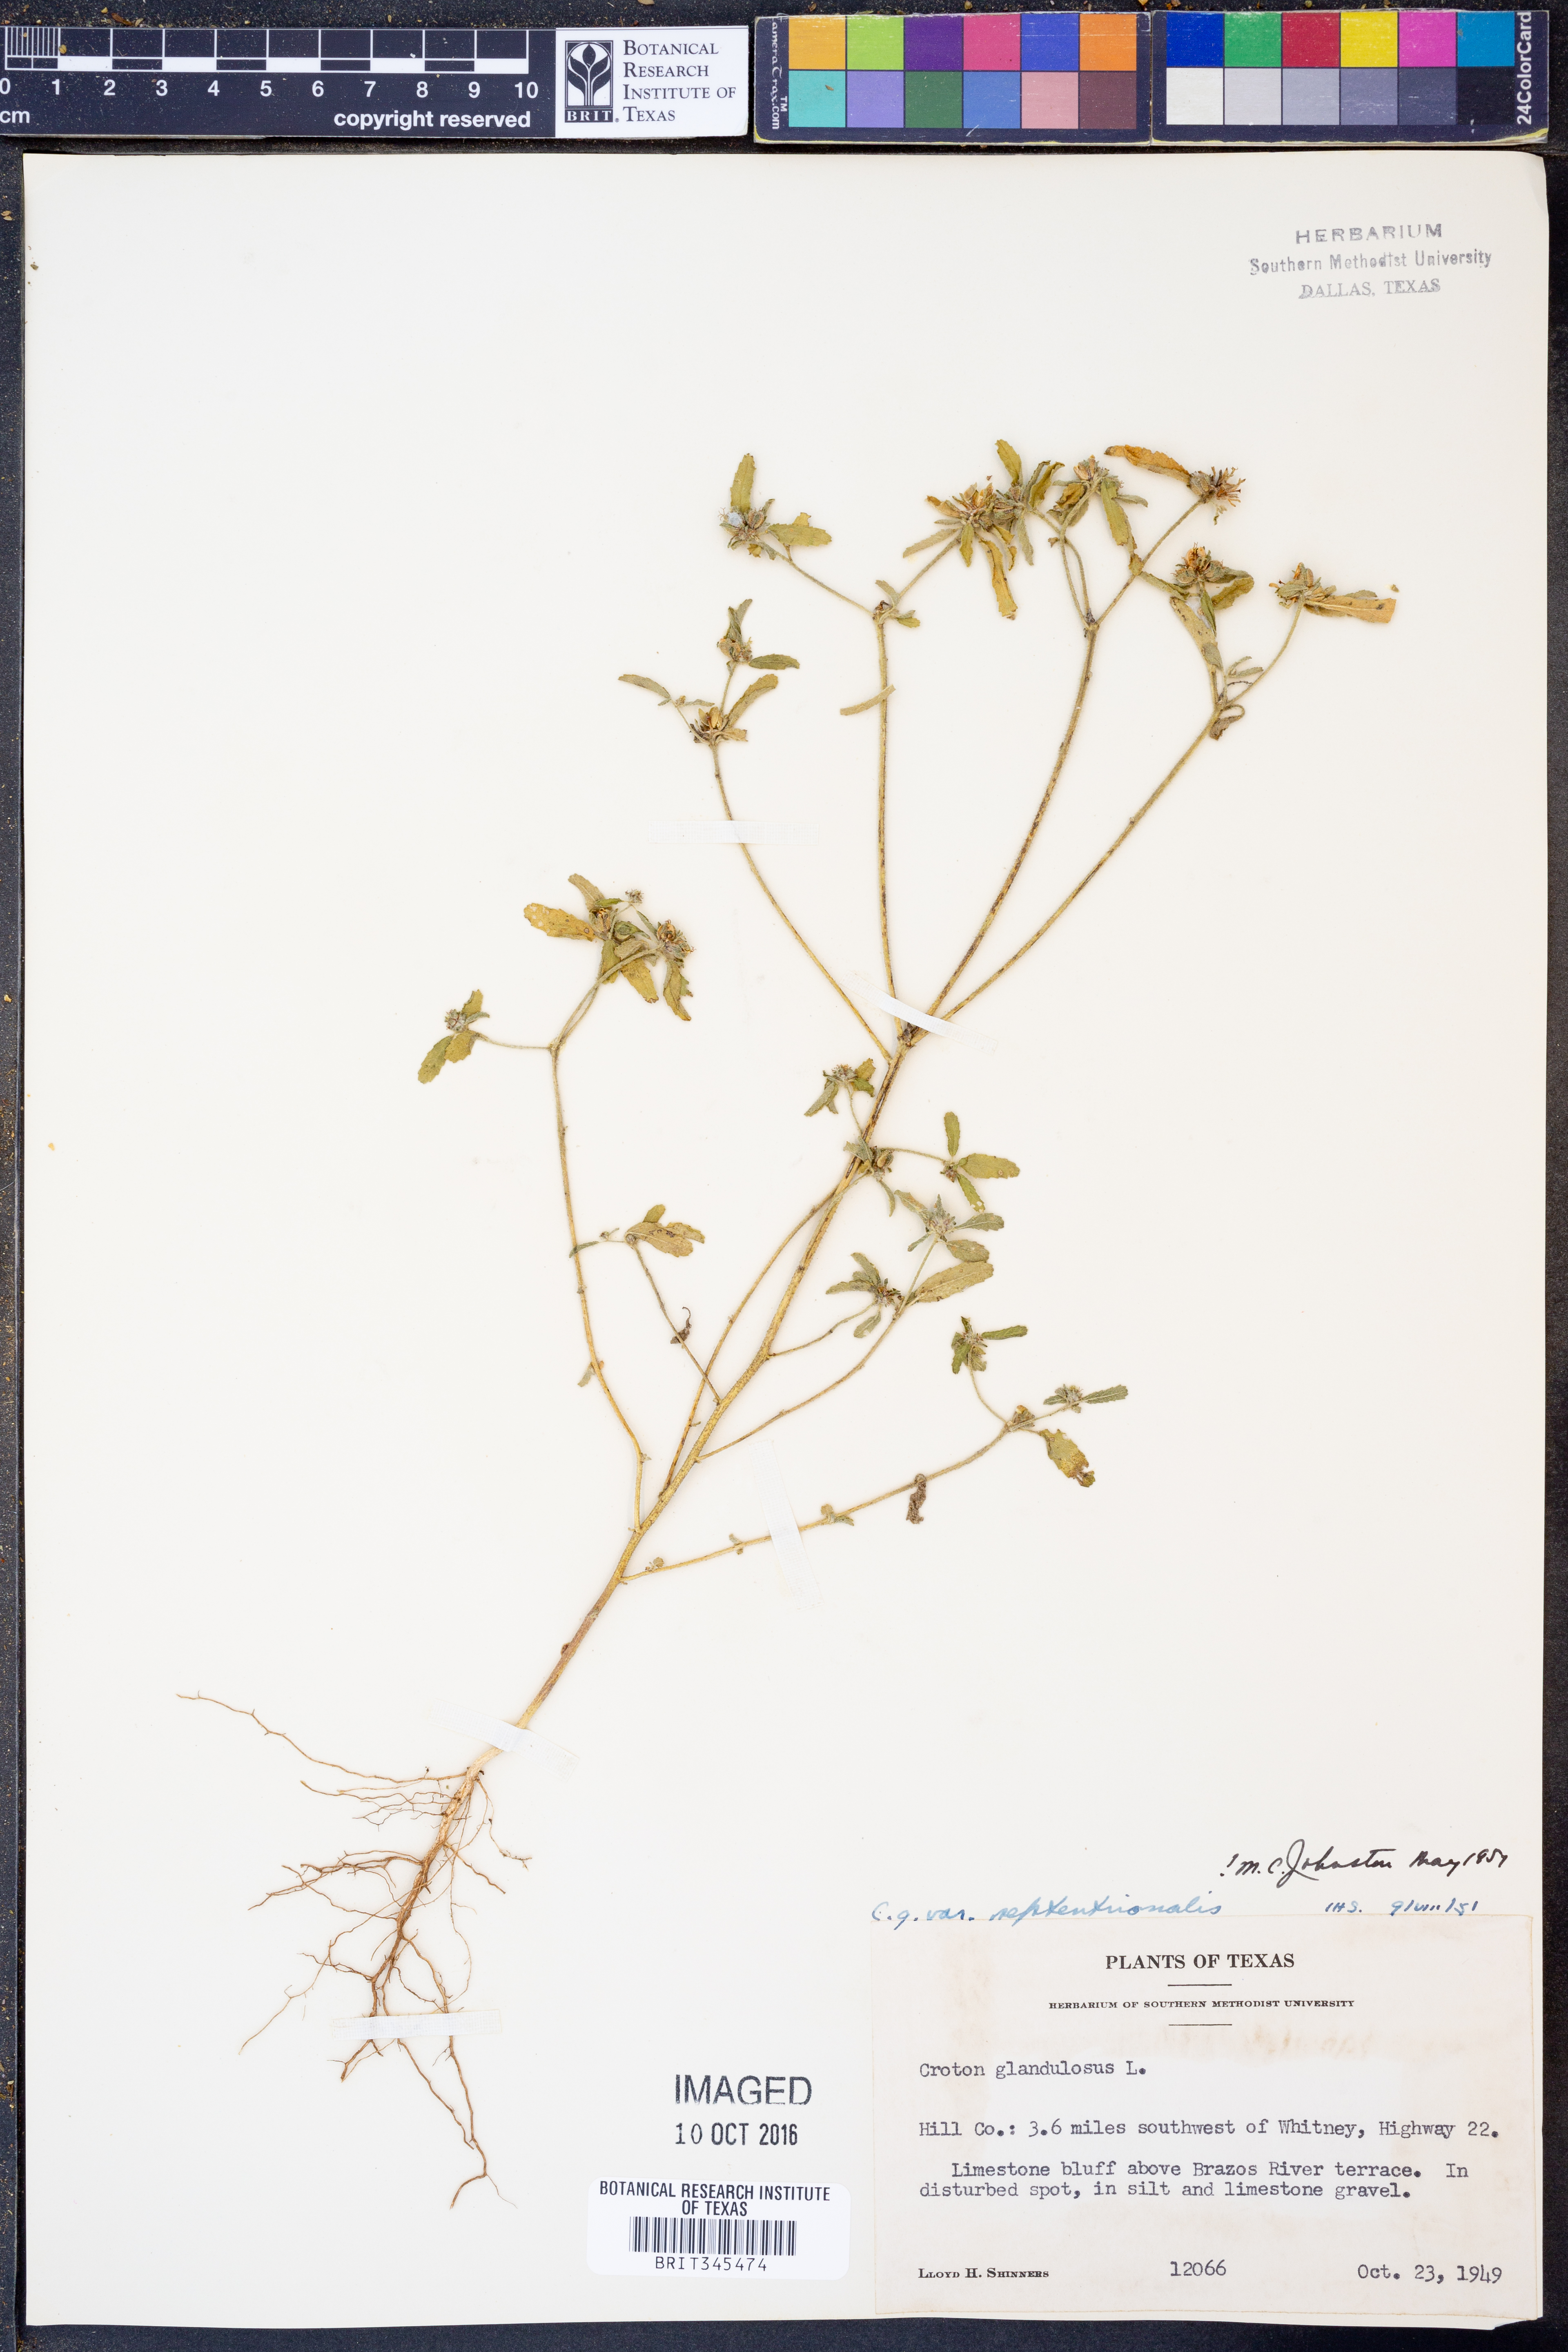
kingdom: Plantae
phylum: Tracheophyta
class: Magnoliopsida
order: Malpighiales
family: Euphorbiaceae
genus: Croton
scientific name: Croton glandulosus
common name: Tropic croton
